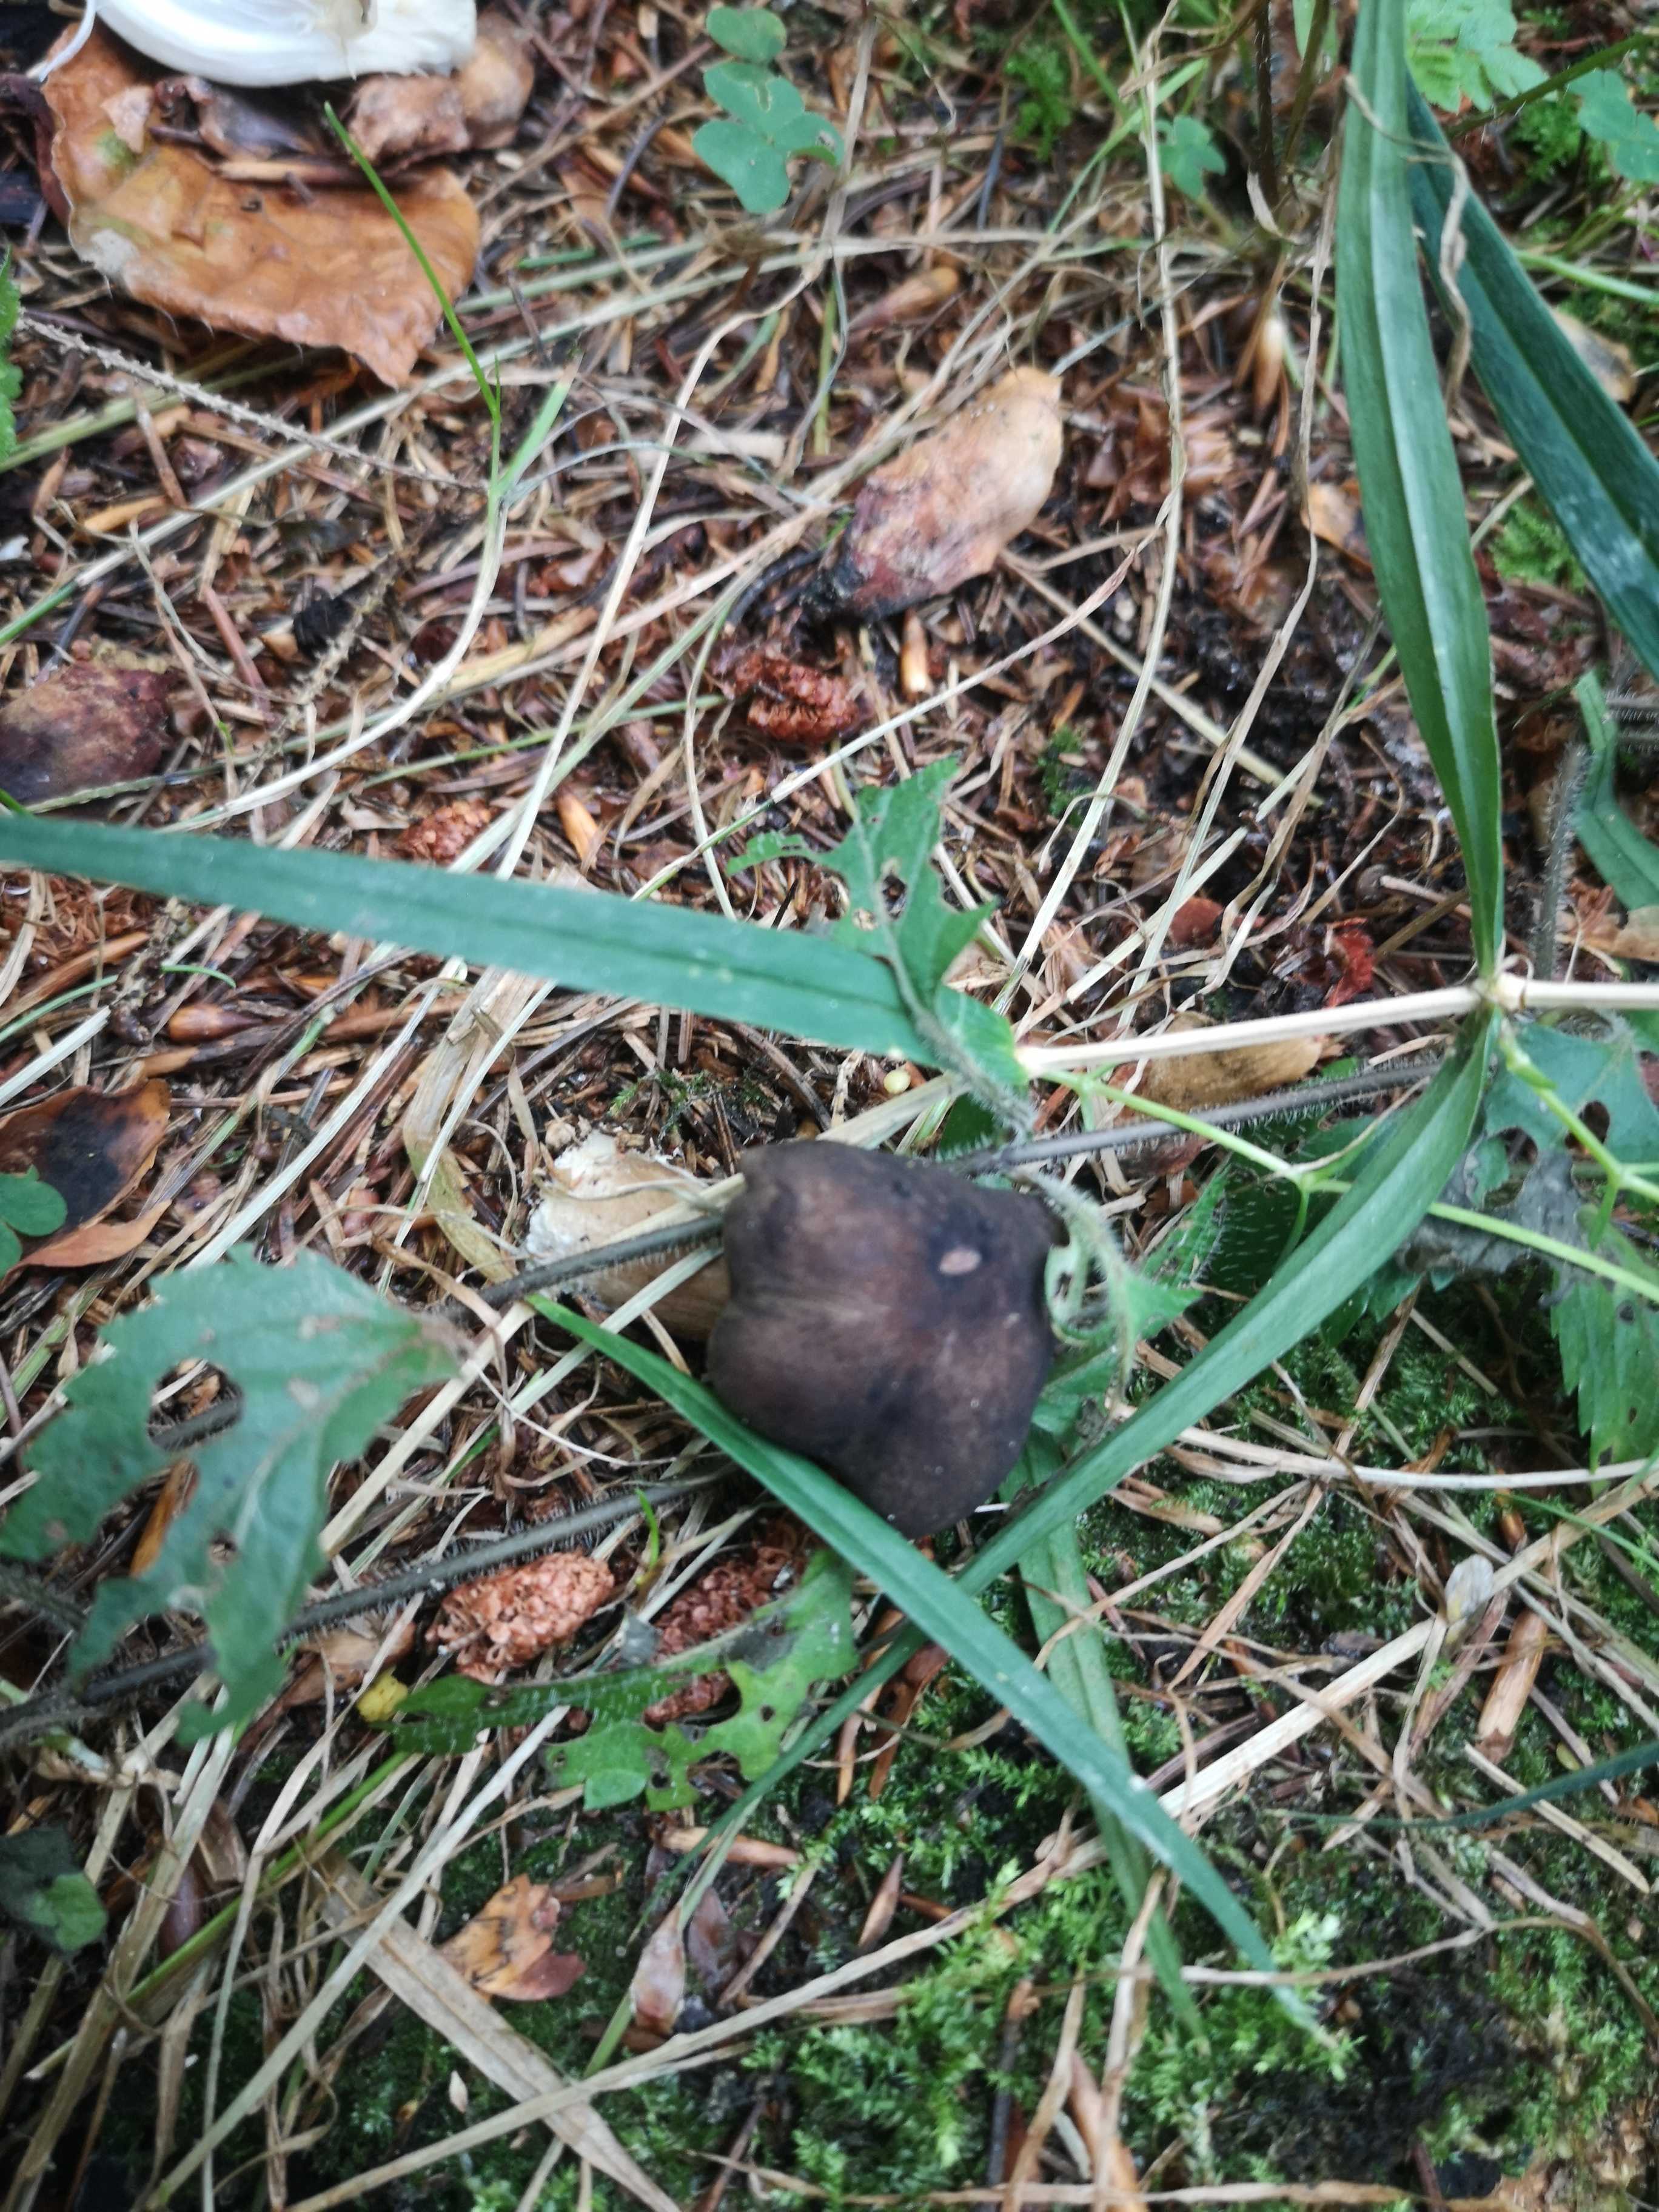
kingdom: Fungi
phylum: Basidiomycota
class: Agaricomycetes
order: Agaricales
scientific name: Agaricales
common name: champignonordenen
